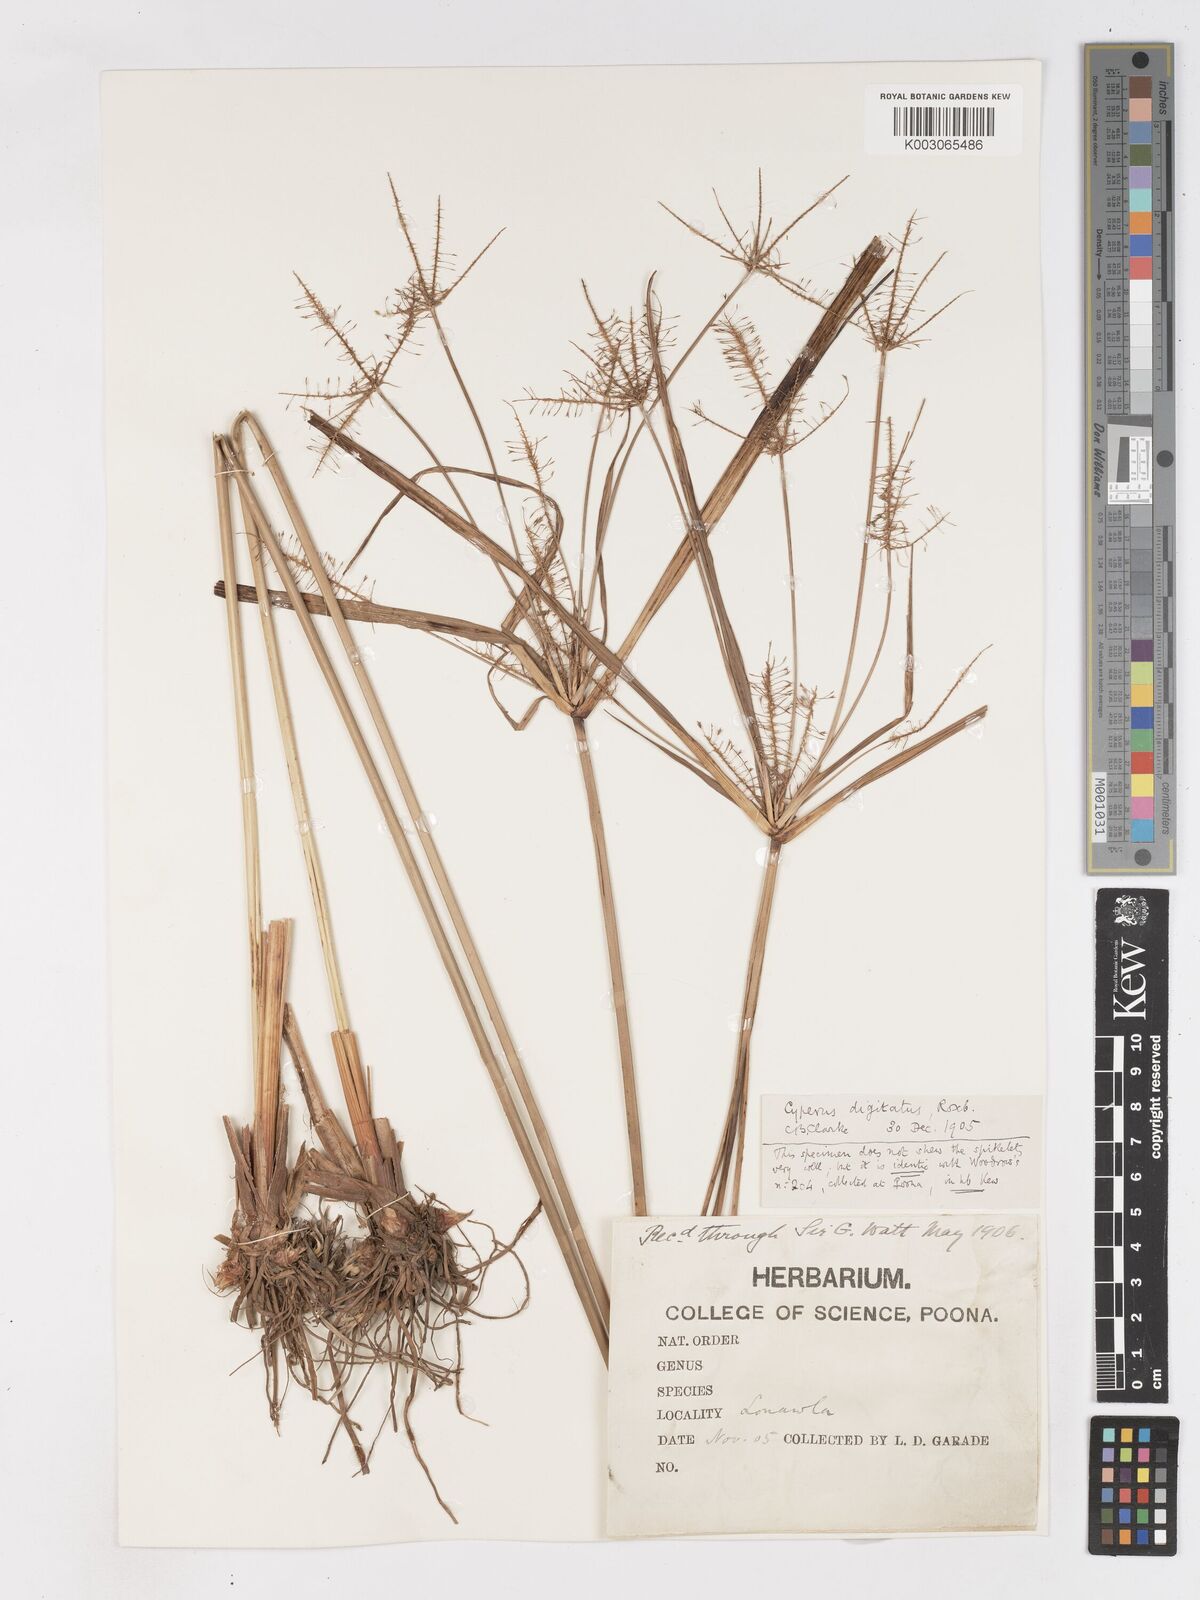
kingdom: Plantae
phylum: Tracheophyta
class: Liliopsida
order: Poales
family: Cyperaceae
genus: Cyperus
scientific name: Cyperus digitatus
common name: Finger flatsedge
